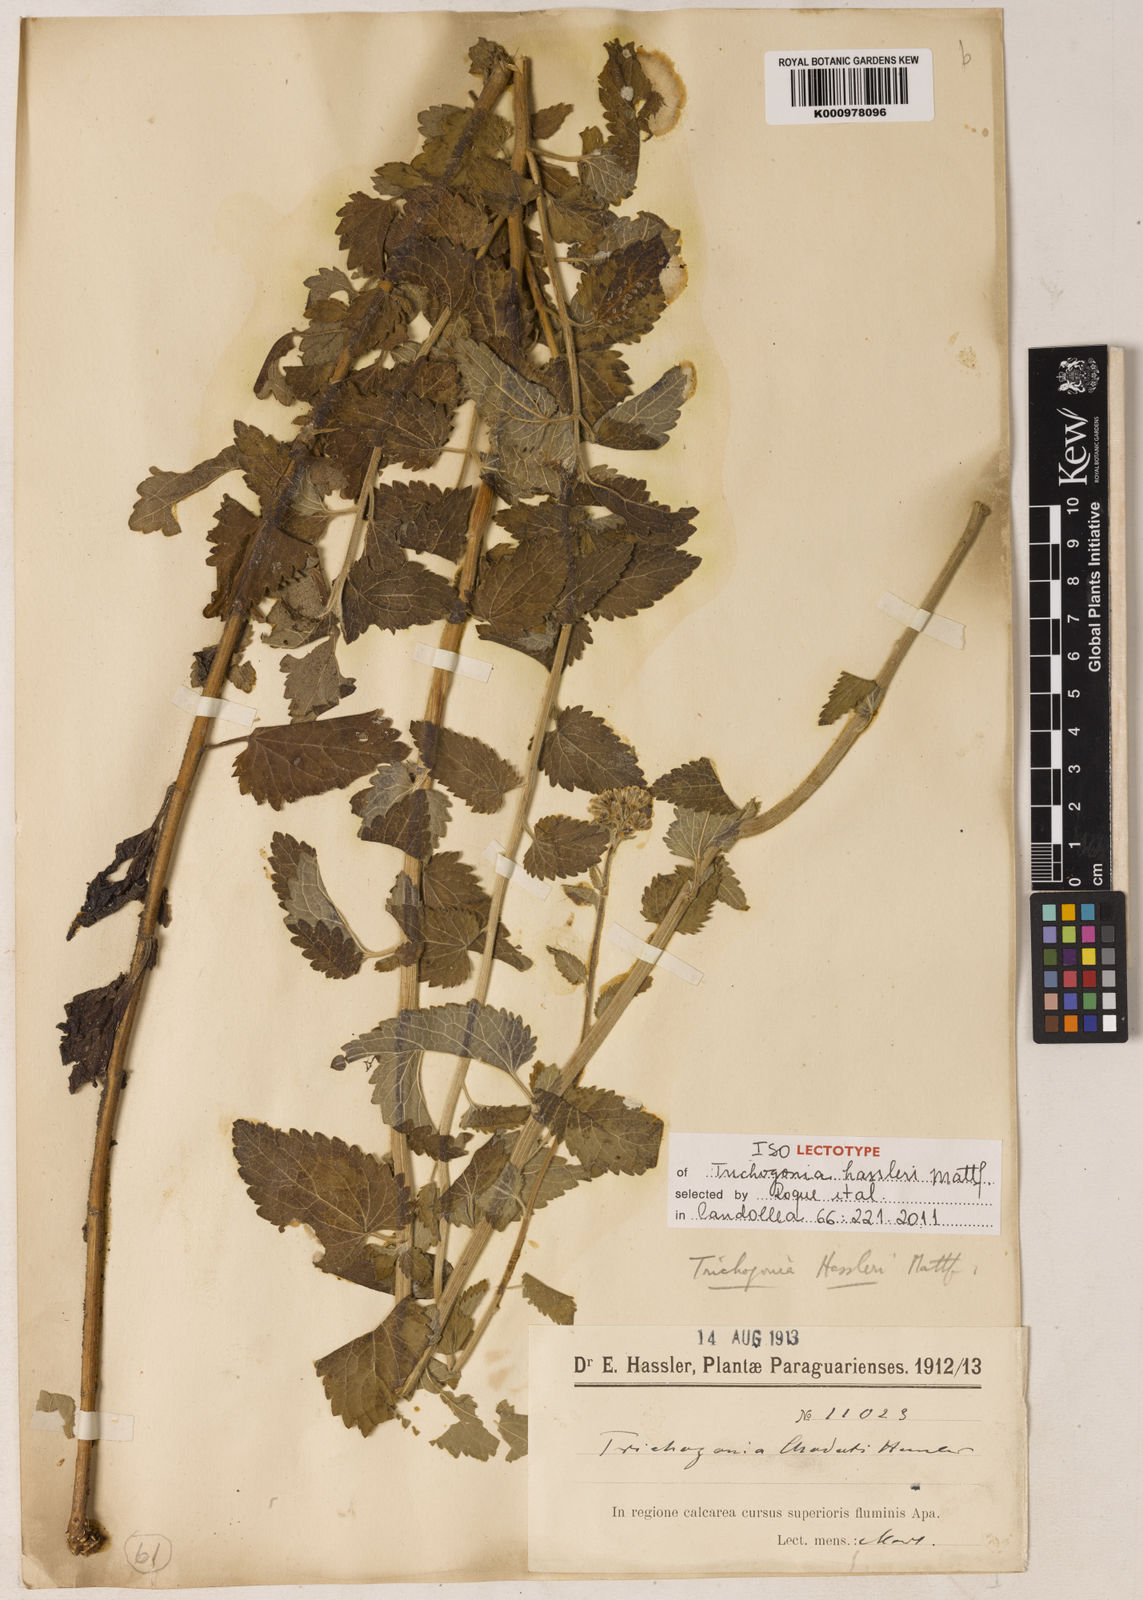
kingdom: Plantae
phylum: Tracheophyta
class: Magnoliopsida
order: Asterales
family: Asteraceae
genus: Trichogonia
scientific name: Trichogonia hassleri
